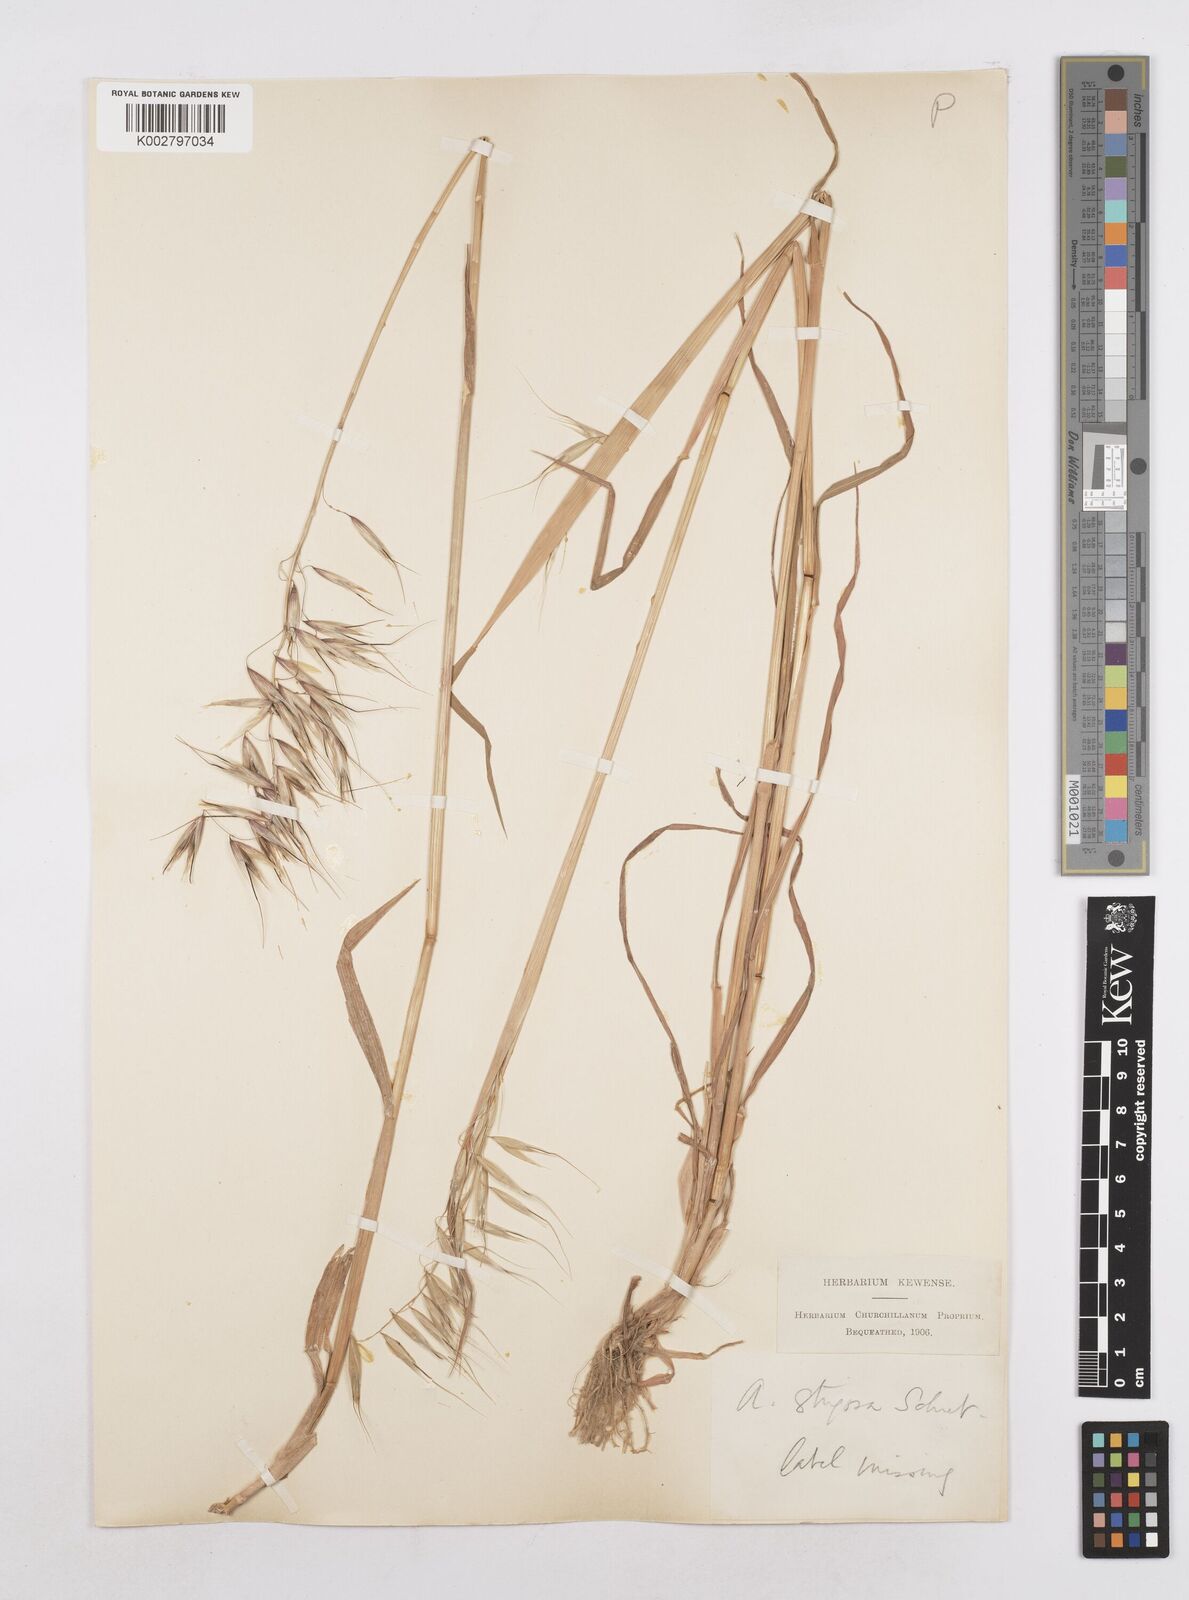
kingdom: Plantae
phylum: Tracheophyta
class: Liliopsida
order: Poales
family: Poaceae
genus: Avena
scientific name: Avena strigosa
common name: Bristle oat
